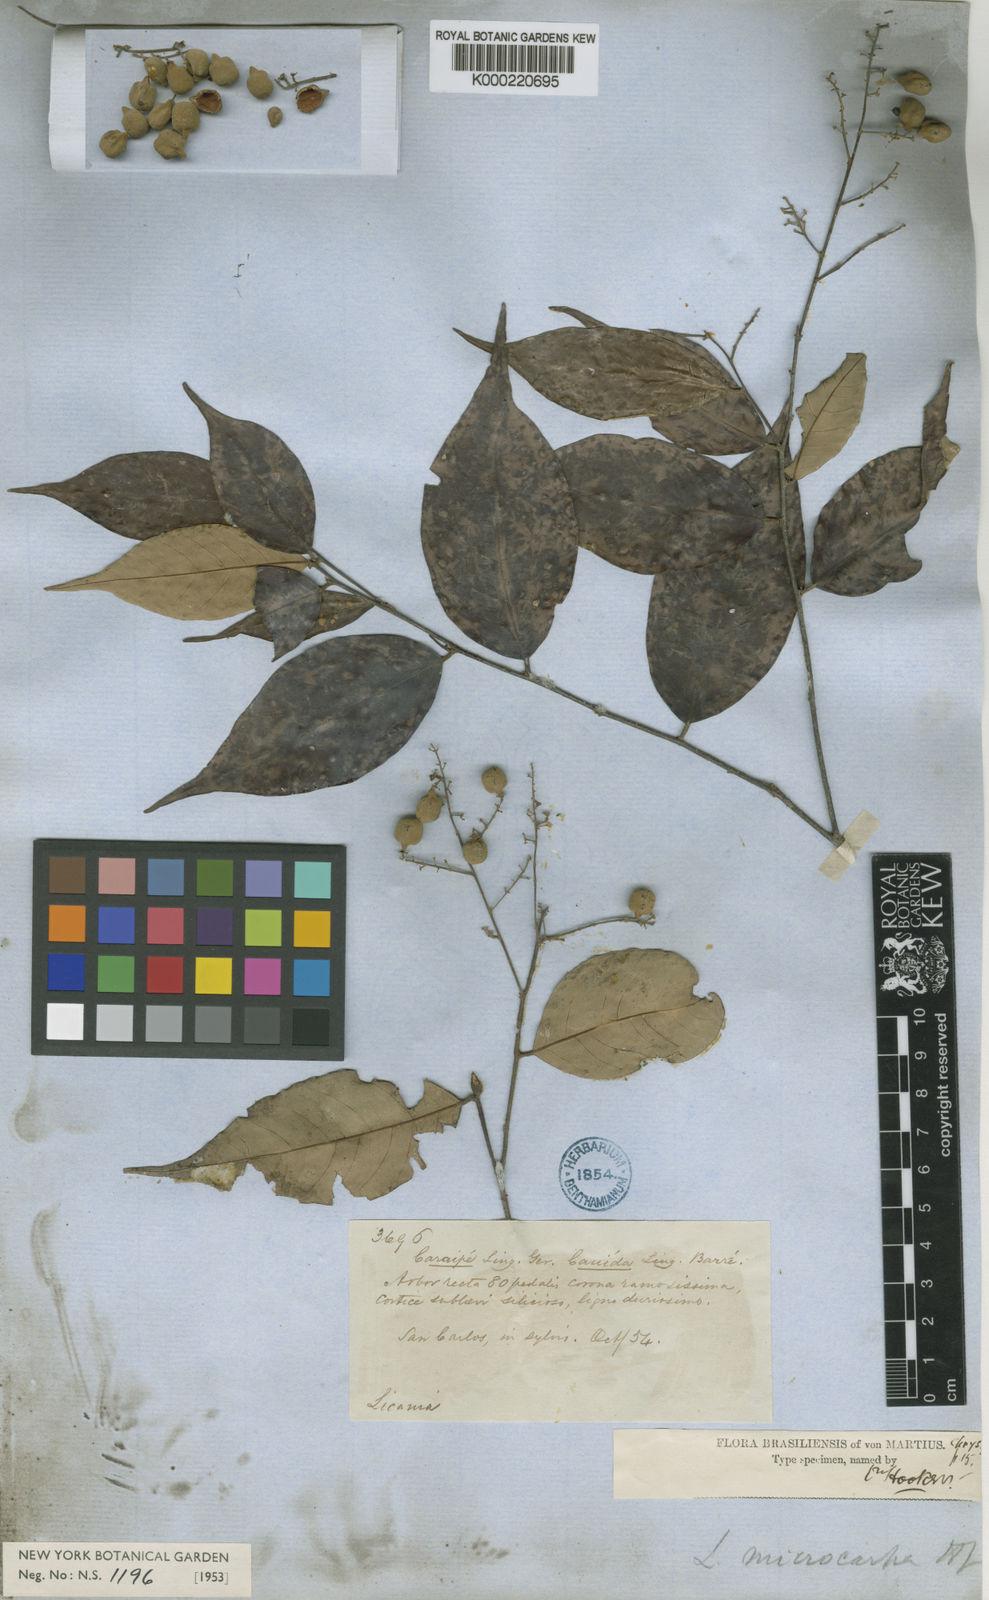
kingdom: Plantae
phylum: Tracheophyta
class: Magnoliopsida
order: Malpighiales
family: Chrysobalanaceae
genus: Licania
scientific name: Licania hypoleuca
